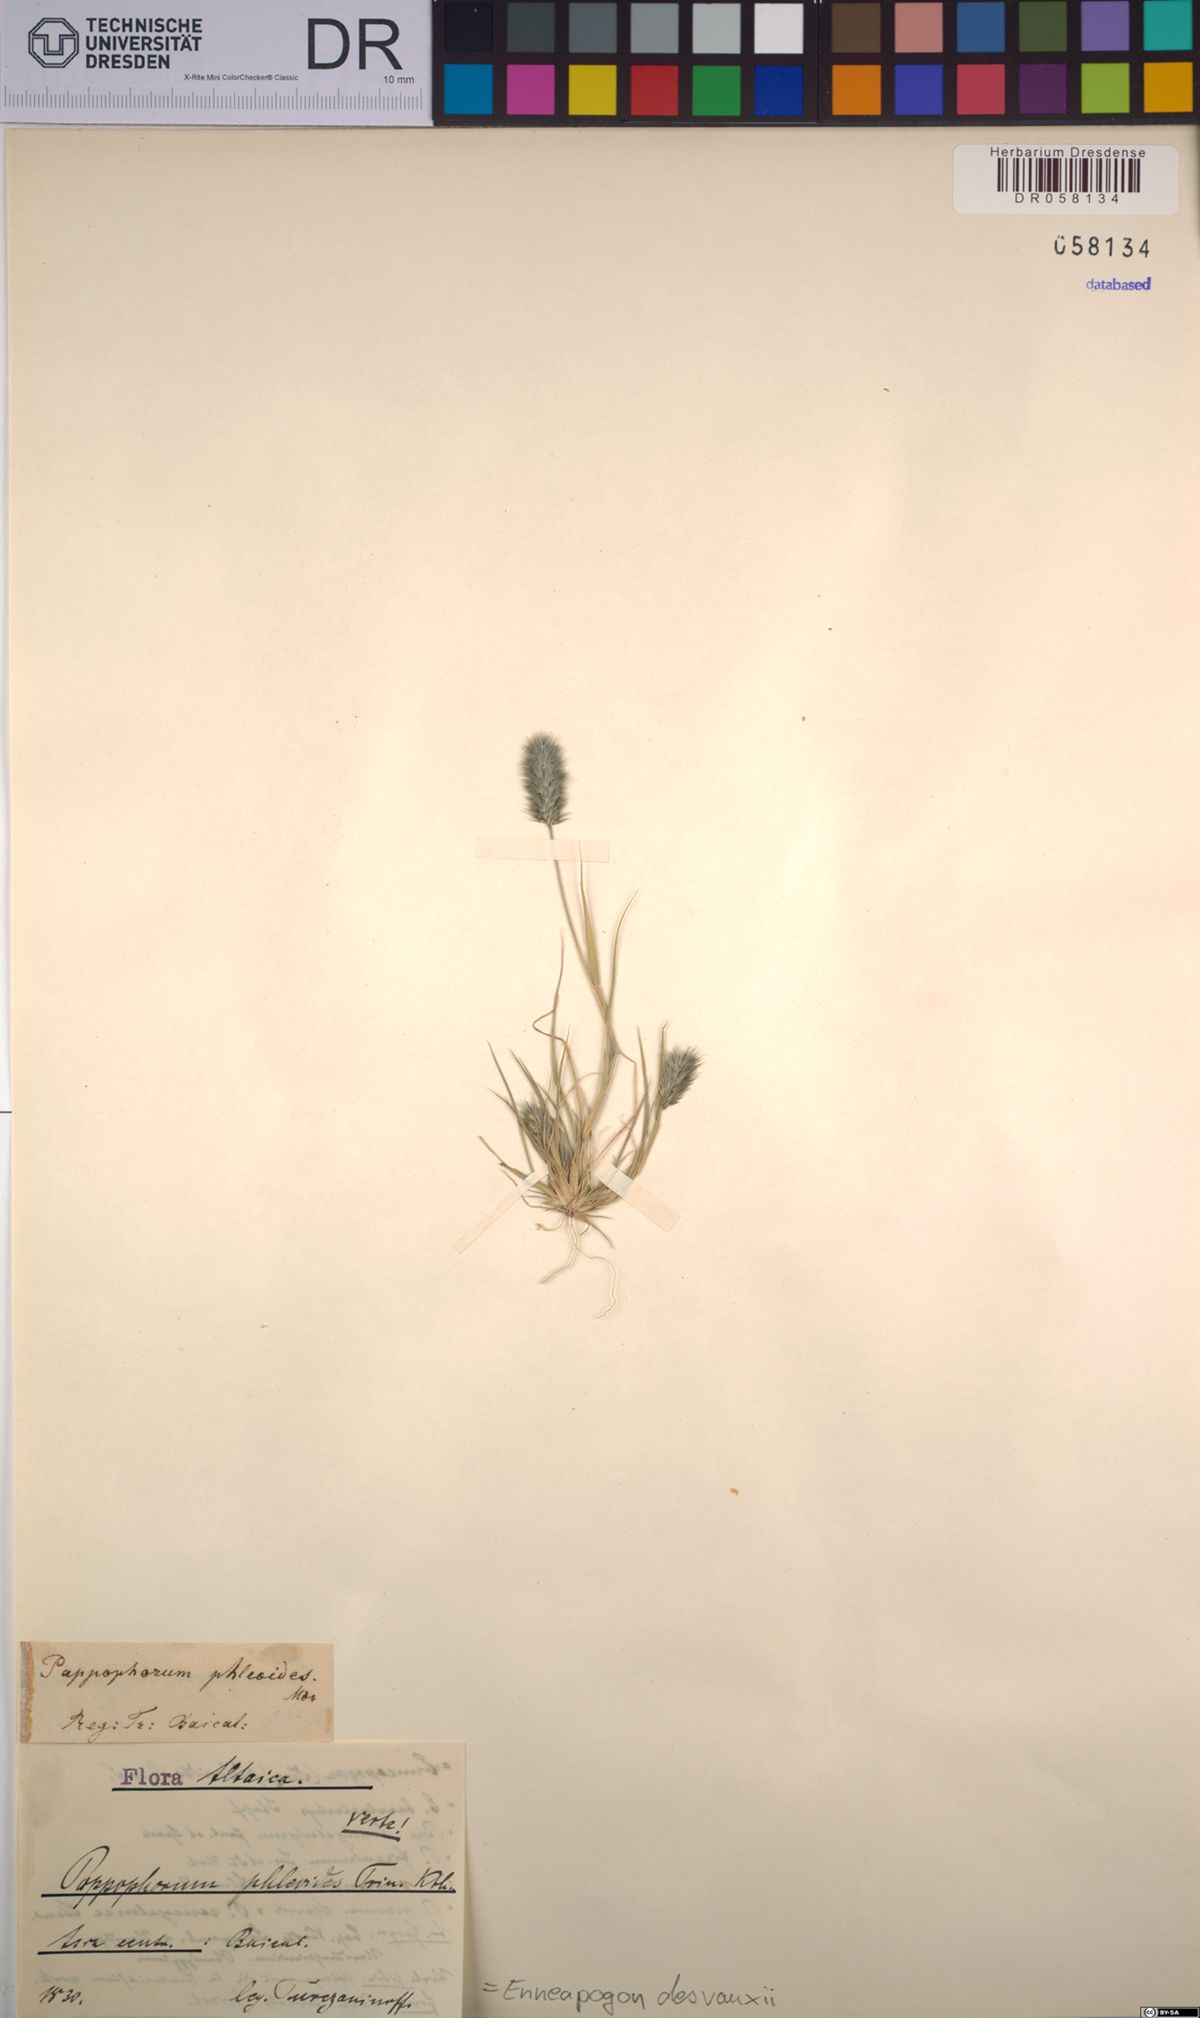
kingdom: Plantae
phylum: Tracheophyta
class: Liliopsida
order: Poales
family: Poaceae
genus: Enneapogon
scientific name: Enneapogon desvauxii
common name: Feather pappus grass
